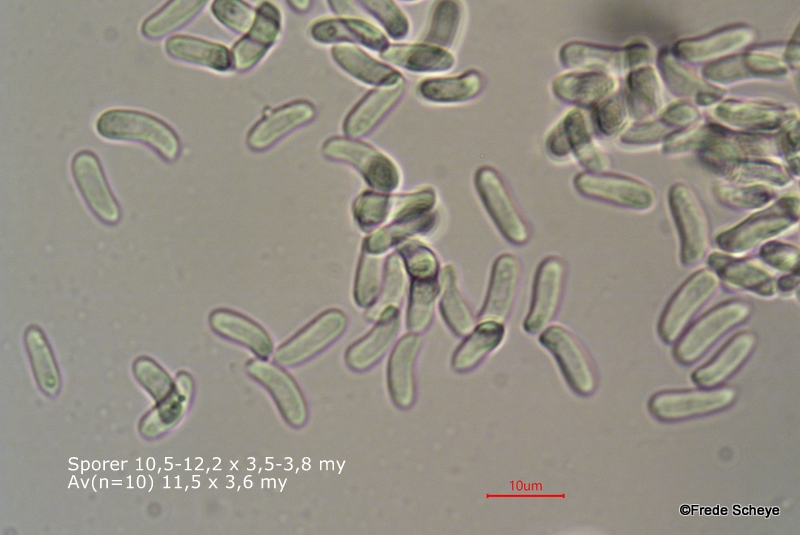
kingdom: Fungi
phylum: Basidiomycota
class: Agaricomycetes
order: Russulales
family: Peniophoraceae
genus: Peniophora
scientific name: Peniophora quercina
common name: ege-voksskind
